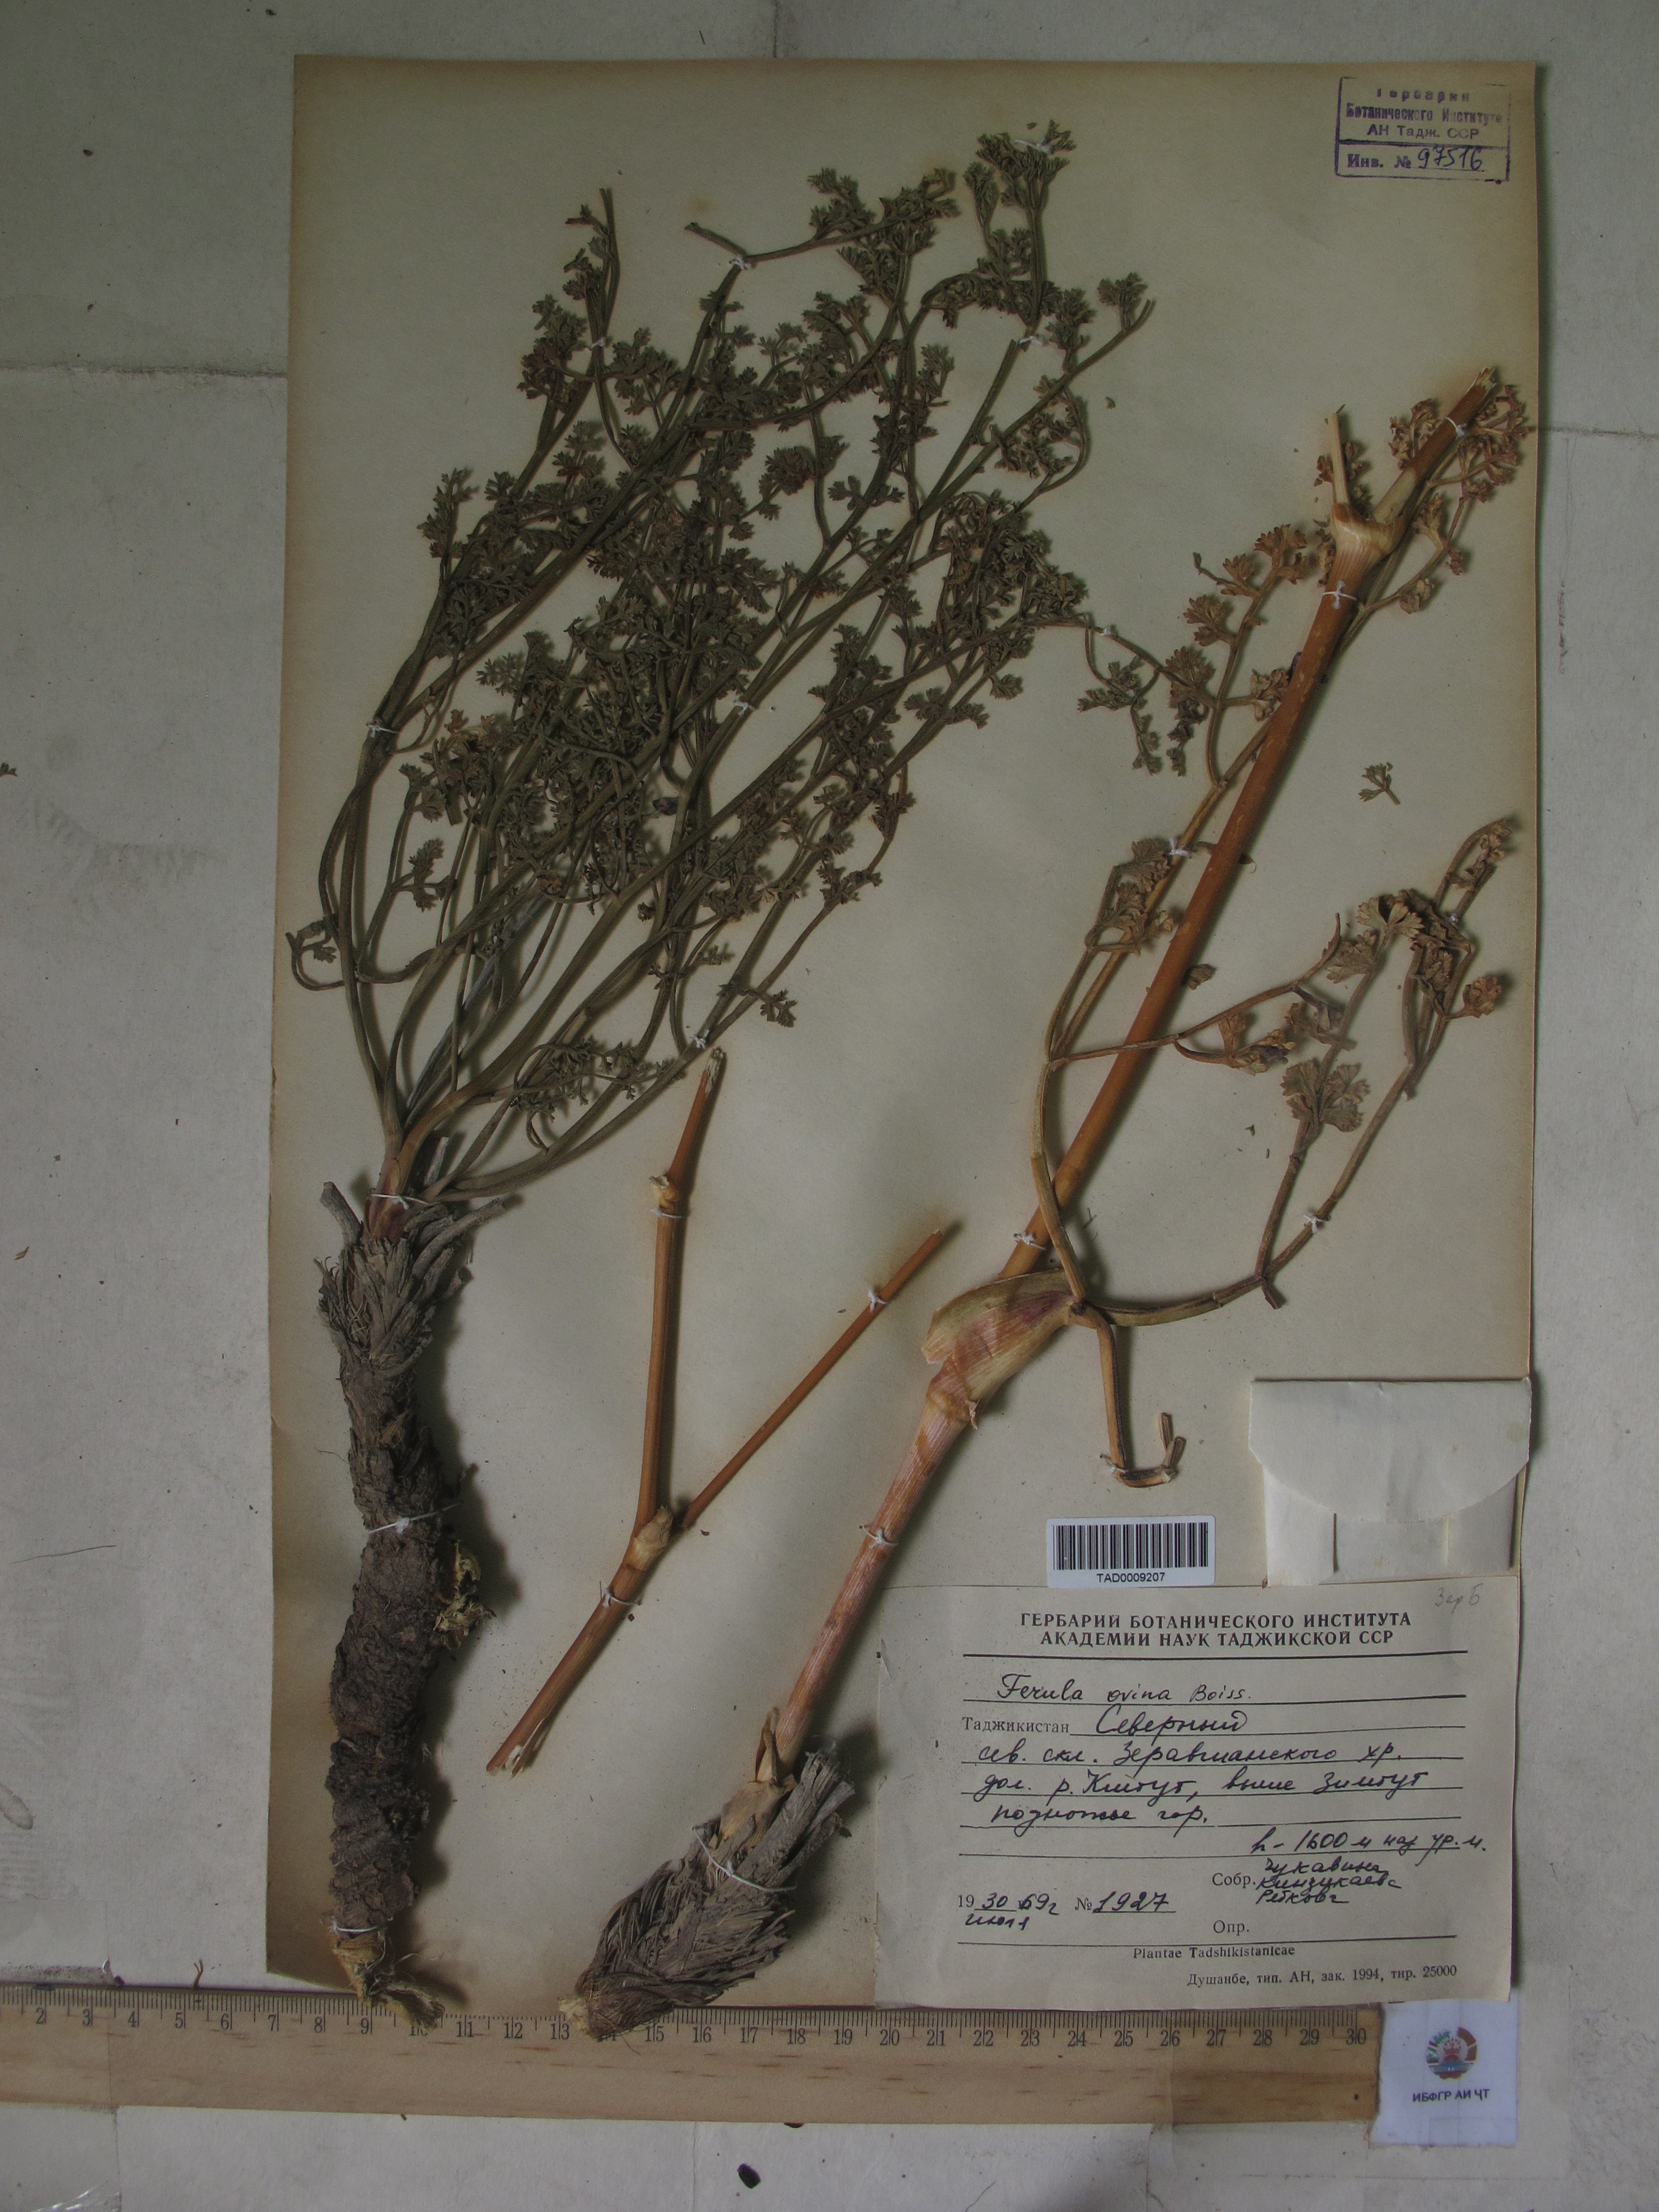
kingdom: Plantae
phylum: Tracheophyta
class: Magnoliopsida
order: Apiales
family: Apiaceae
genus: Ferula
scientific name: Ferula ovina
